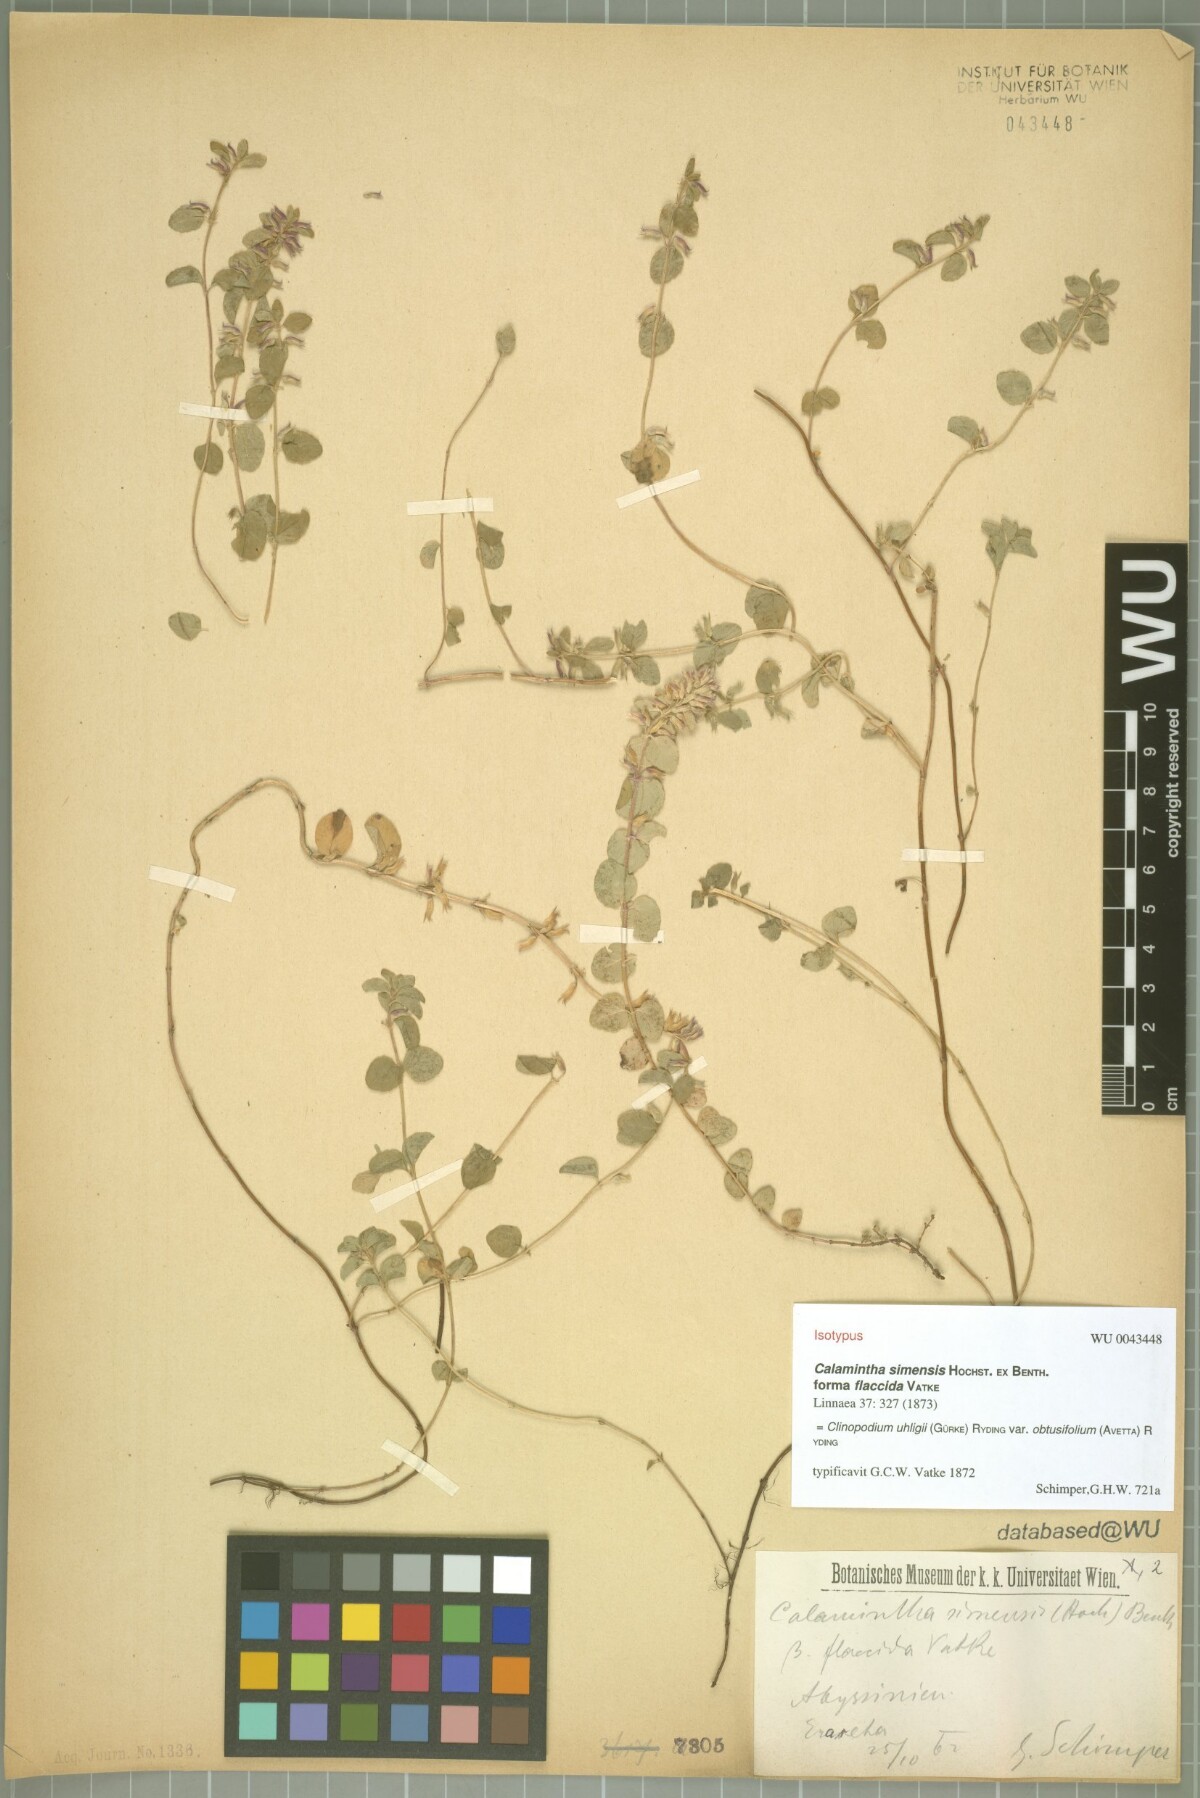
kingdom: Plantae
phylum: Tracheophyta
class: Magnoliopsida
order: Lamiales
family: Lamiaceae
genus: Clinopodium
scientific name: Clinopodium uhligii
